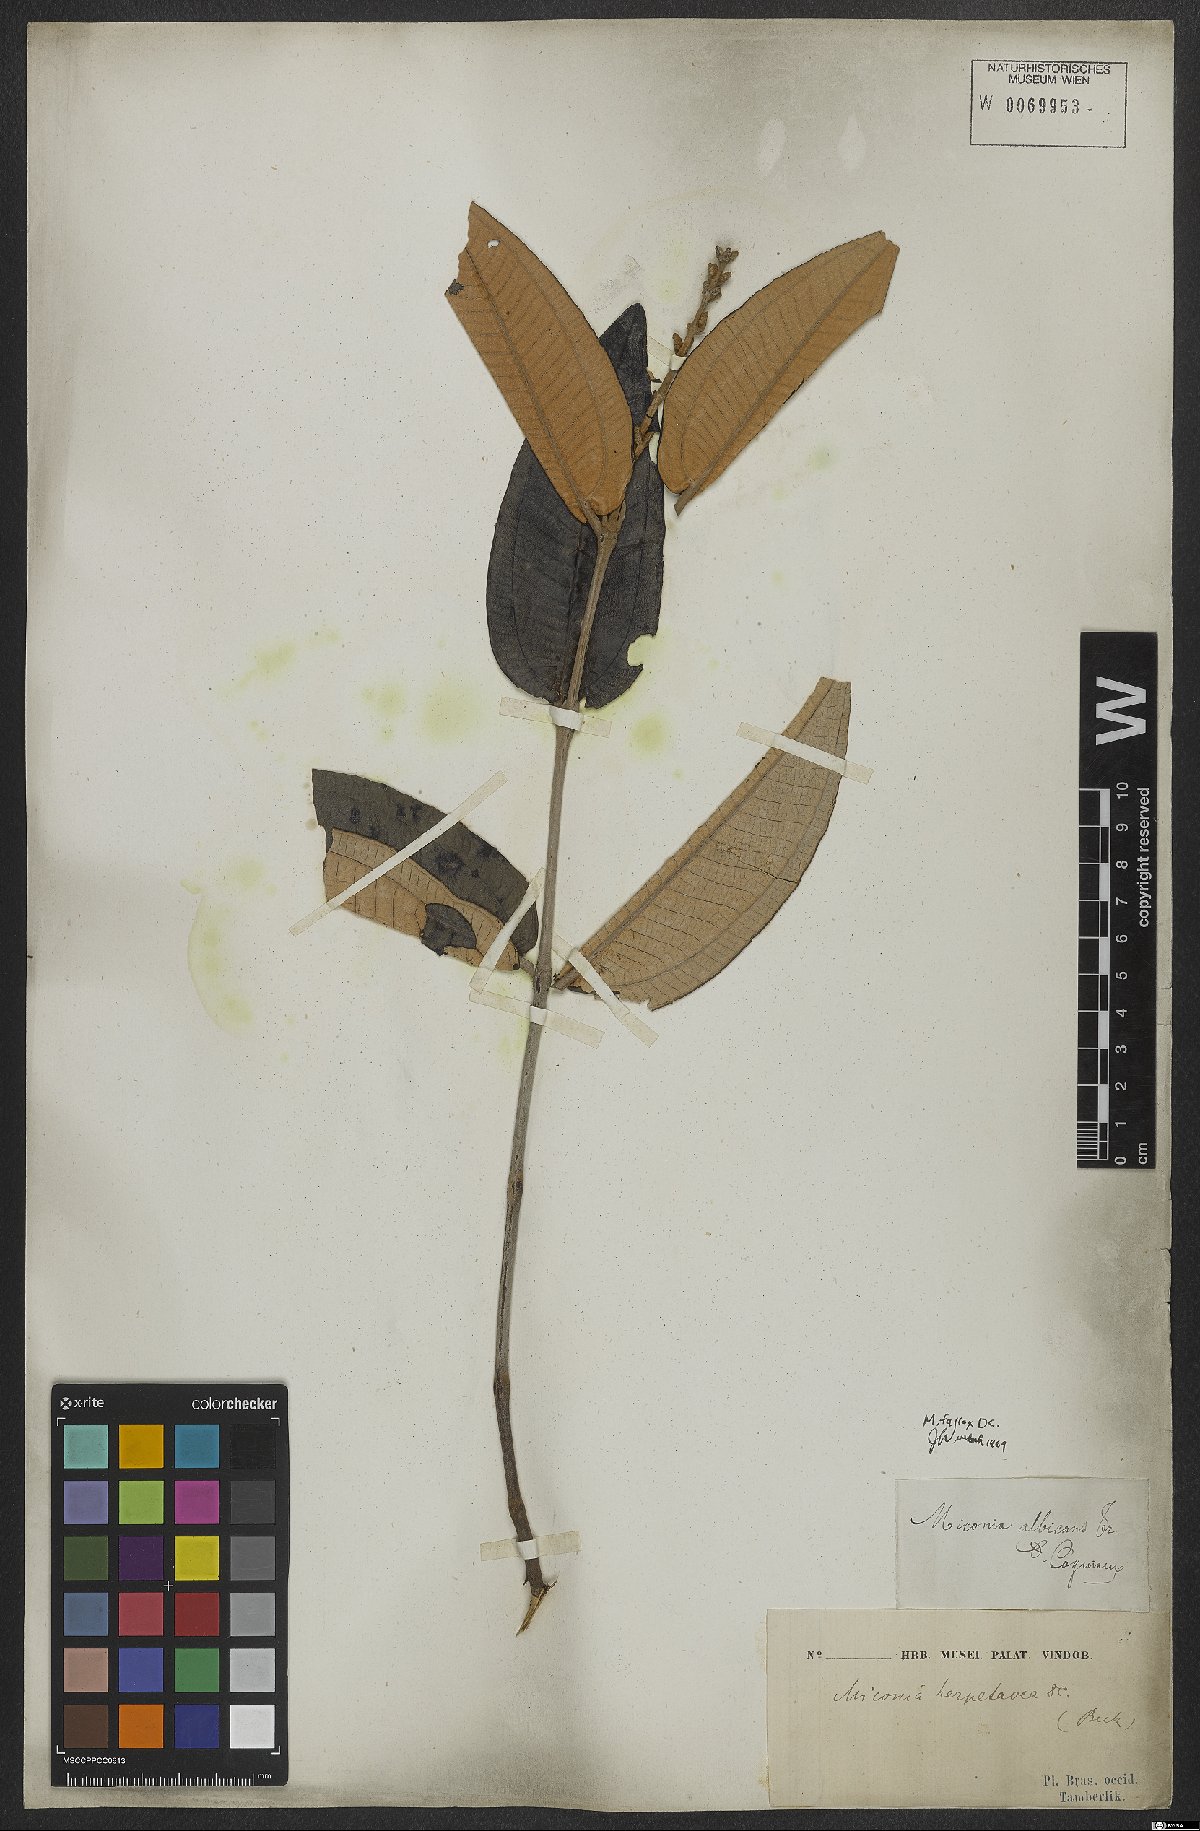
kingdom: Plantae
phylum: Tracheophyta
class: Magnoliopsida
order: Myrtales
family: Melastomataceae
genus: Miconia
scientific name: Miconia fallax
